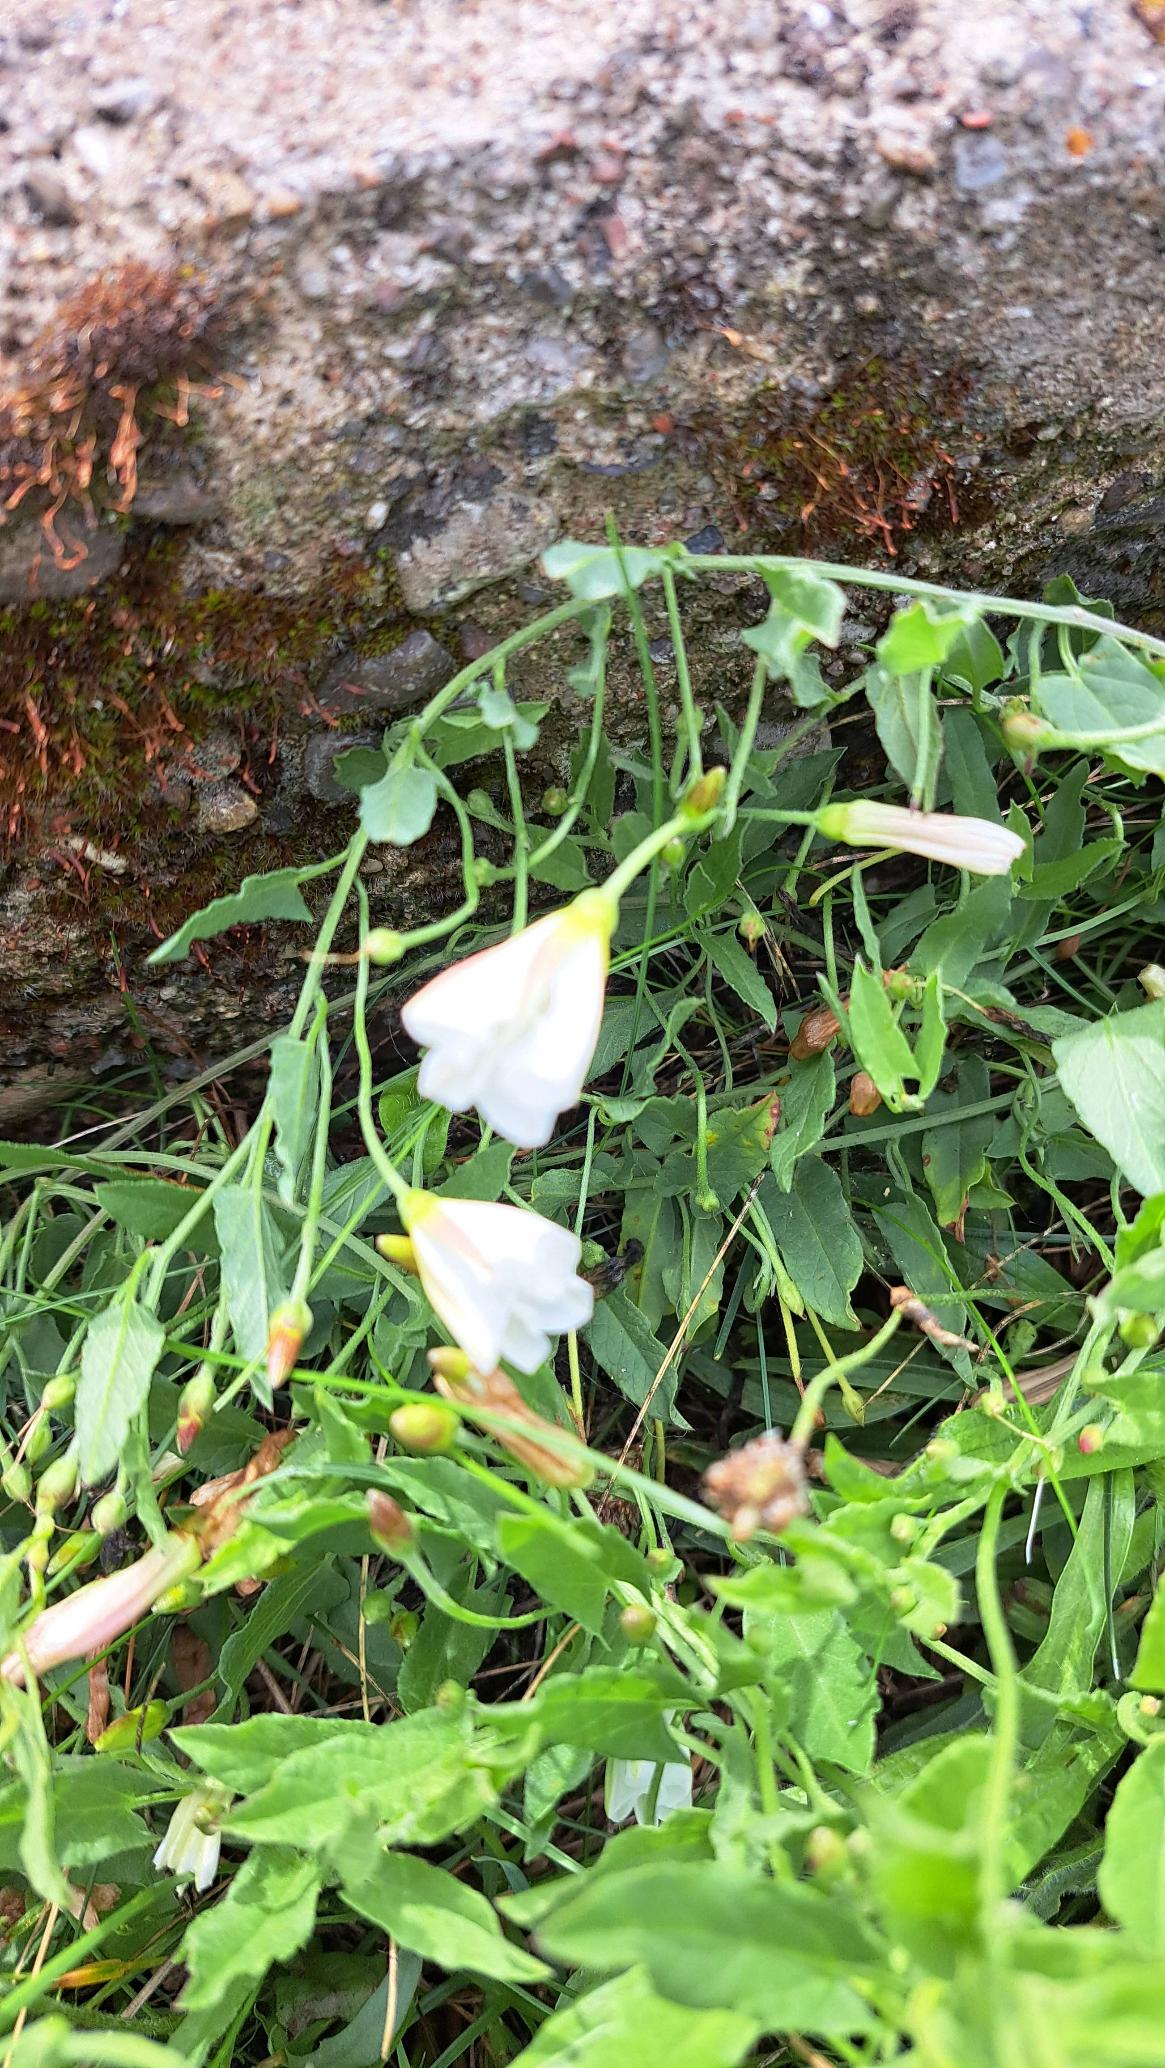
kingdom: Plantae
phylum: Tracheophyta
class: Magnoliopsida
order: Solanales
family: Convolvulaceae
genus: Convolvulus
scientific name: Convolvulus arvensis
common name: Ager-snerle
